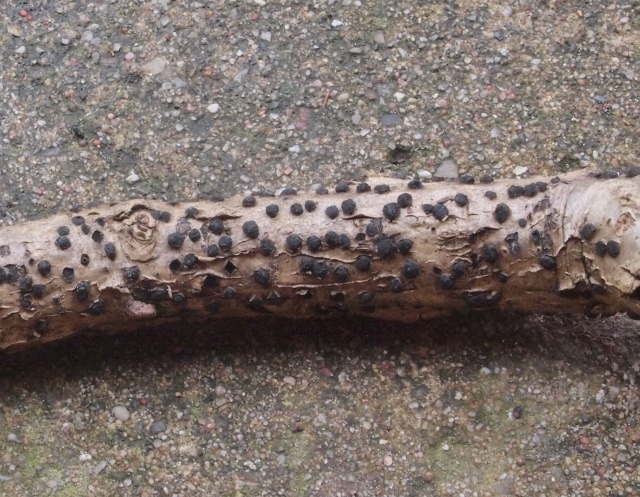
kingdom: Fungi
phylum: Ascomycota
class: Sordariomycetes
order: Xylariales
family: Diatrypaceae
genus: Diatrypella
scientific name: Diatrypella quercina
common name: ege-kulskorpe
